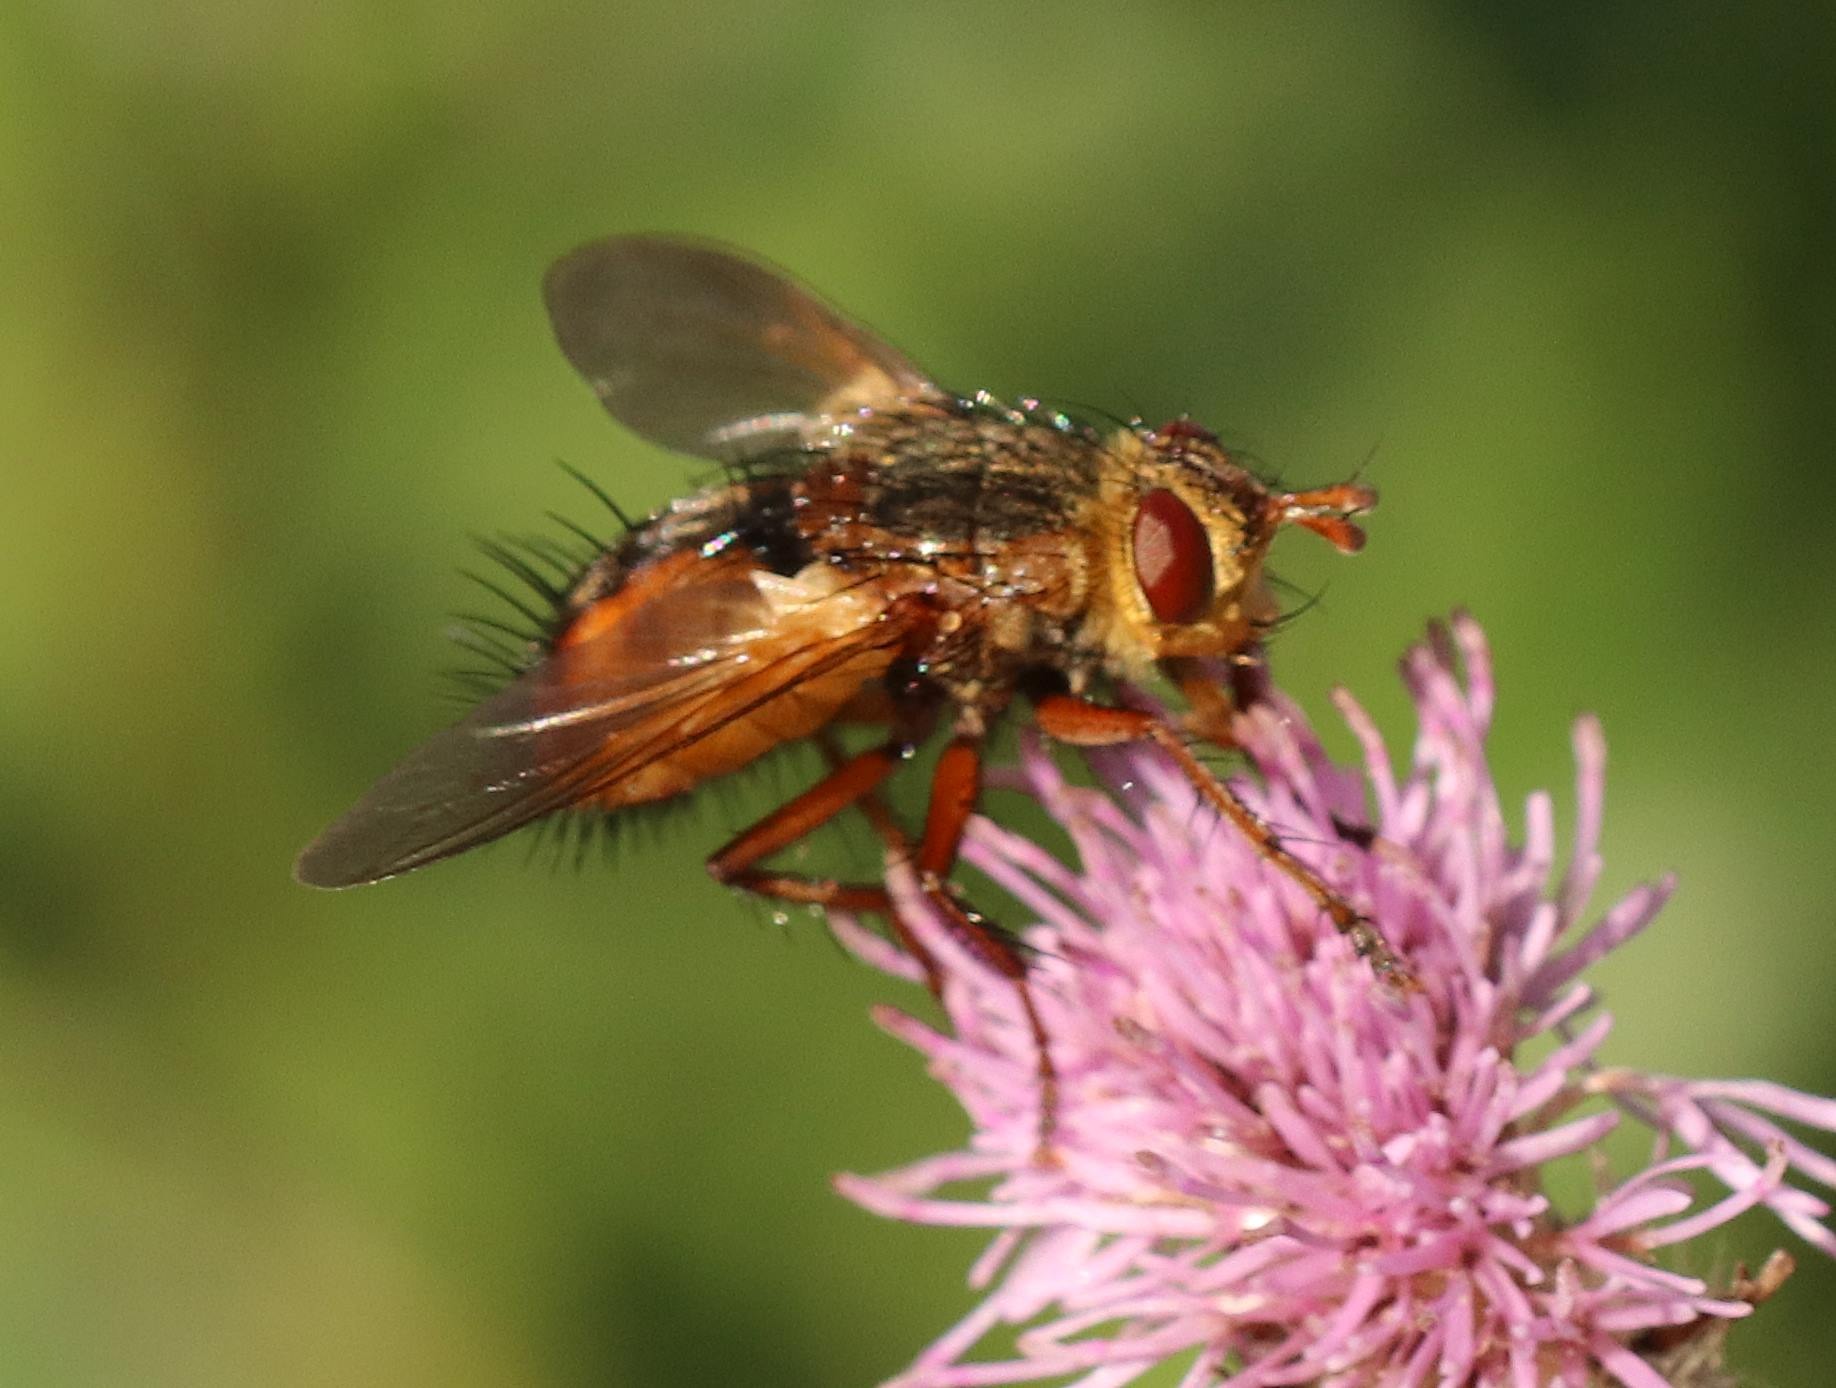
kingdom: Animalia
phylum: Arthropoda
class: Insecta
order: Diptera
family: Tachinidae
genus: Tachina
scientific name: Tachina fera
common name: Mellemfluen oskar
